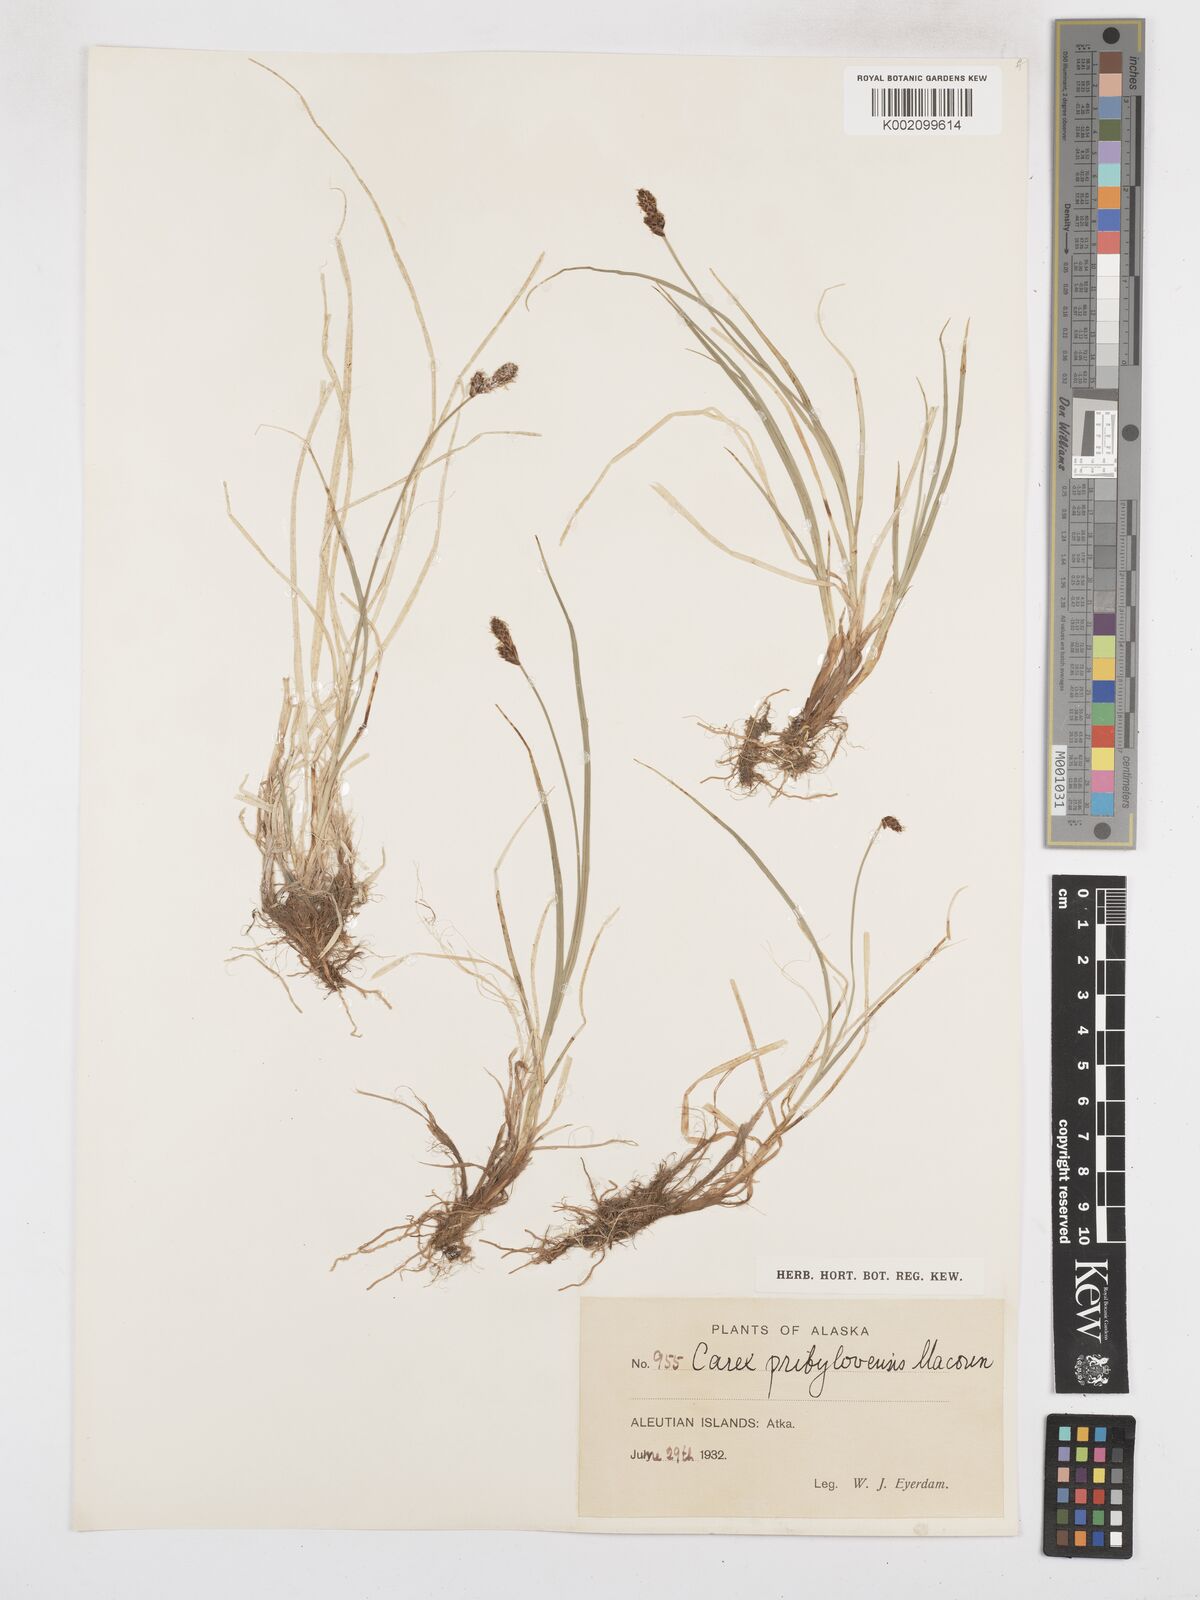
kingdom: Plantae
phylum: Tracheophyta
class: Liliopsida
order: Poales
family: Cyperaceae
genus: Carex
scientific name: Carex glareosa
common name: Clustered sedge
